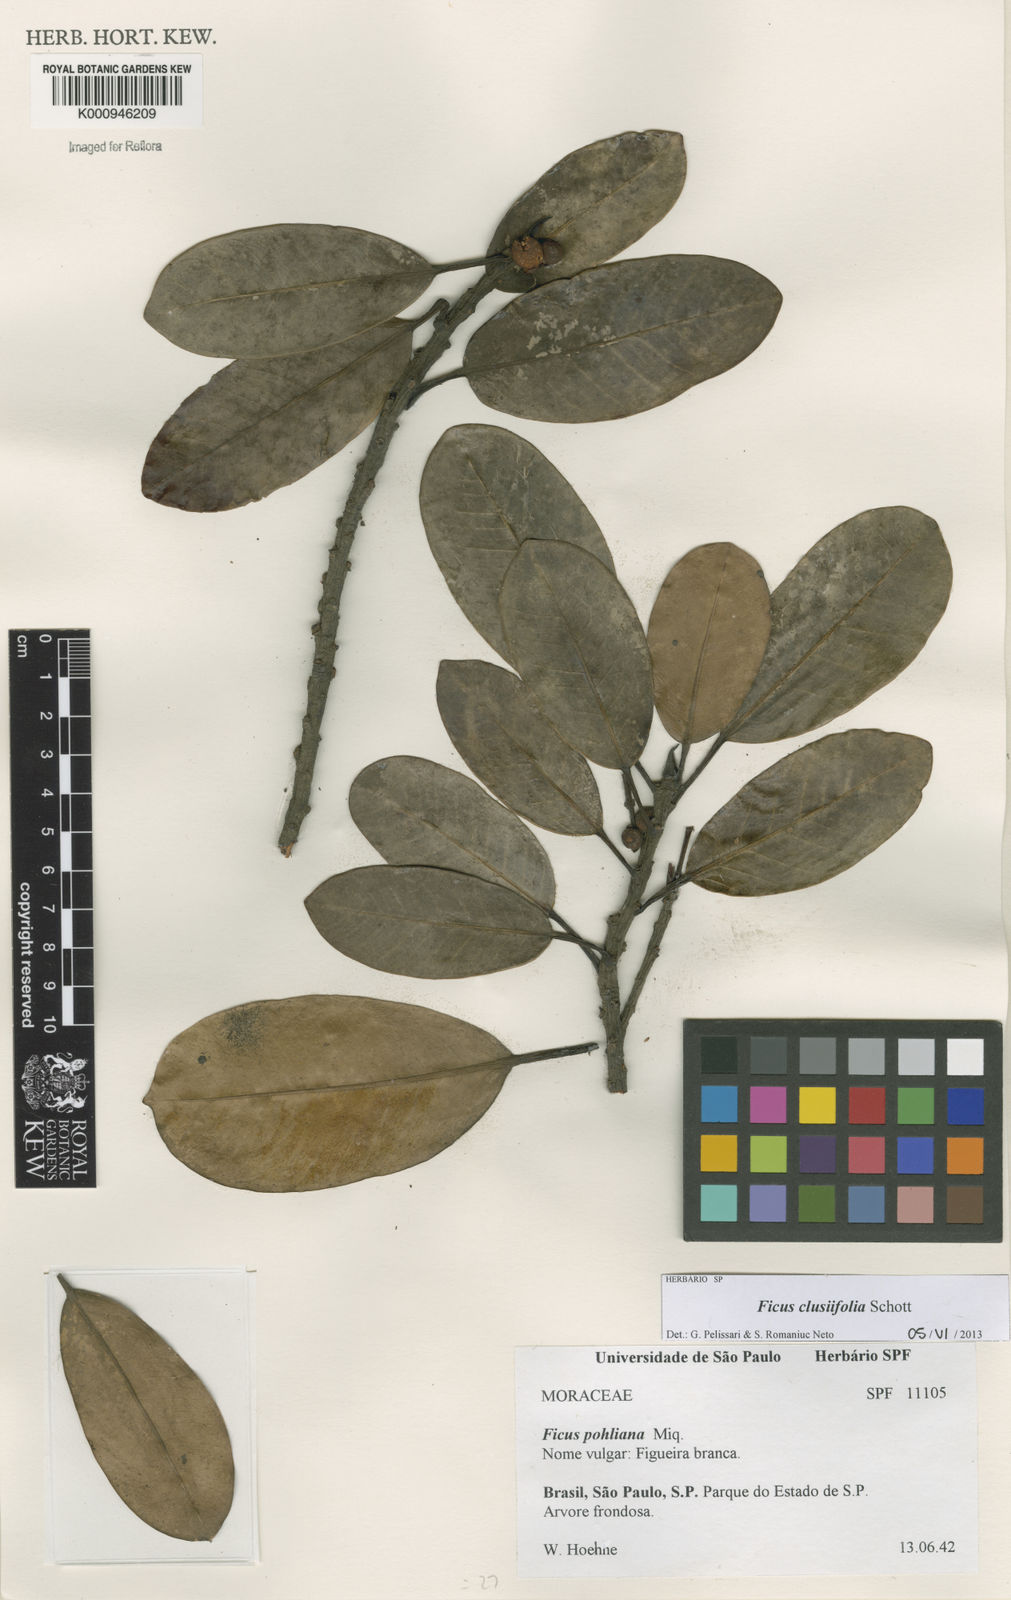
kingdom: Plantae
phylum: Tracheophyta
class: Magnoliopsida
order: Rosales
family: Moraceae
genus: Ficus
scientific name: Ficus americana
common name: Jamaican cherry fig
